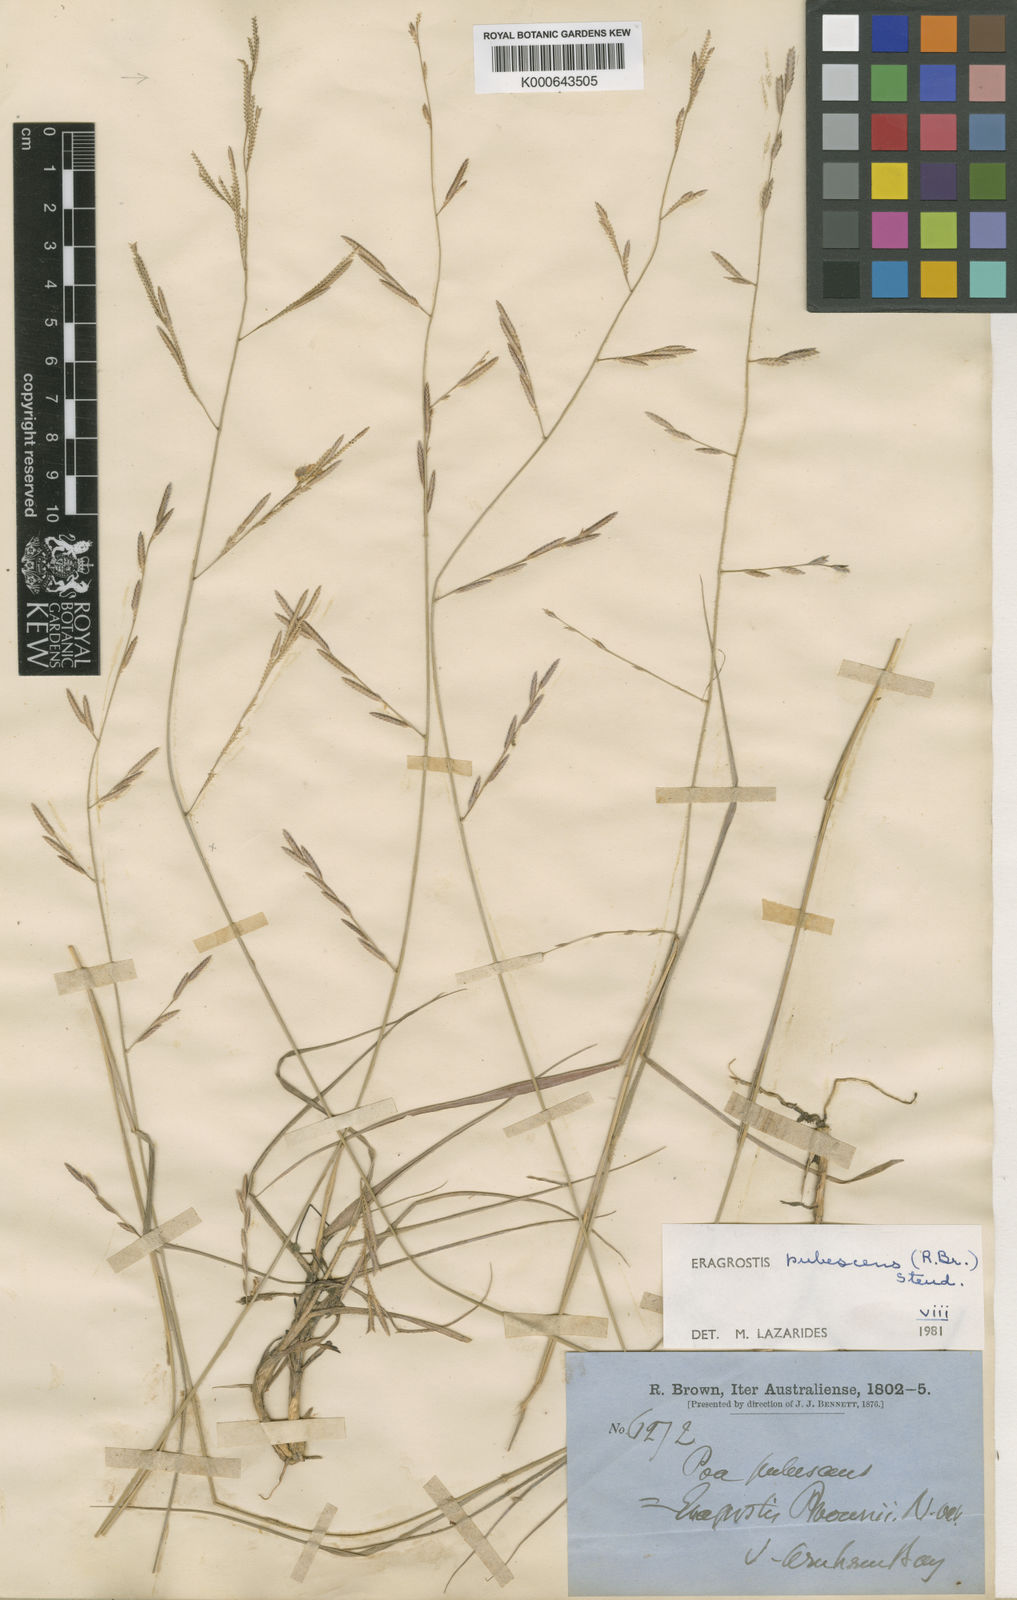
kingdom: Plantae
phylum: Tracheophyta
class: Liliopsida
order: Poales
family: Poaceae
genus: Eragrostis
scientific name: Eragrostis pubescens
